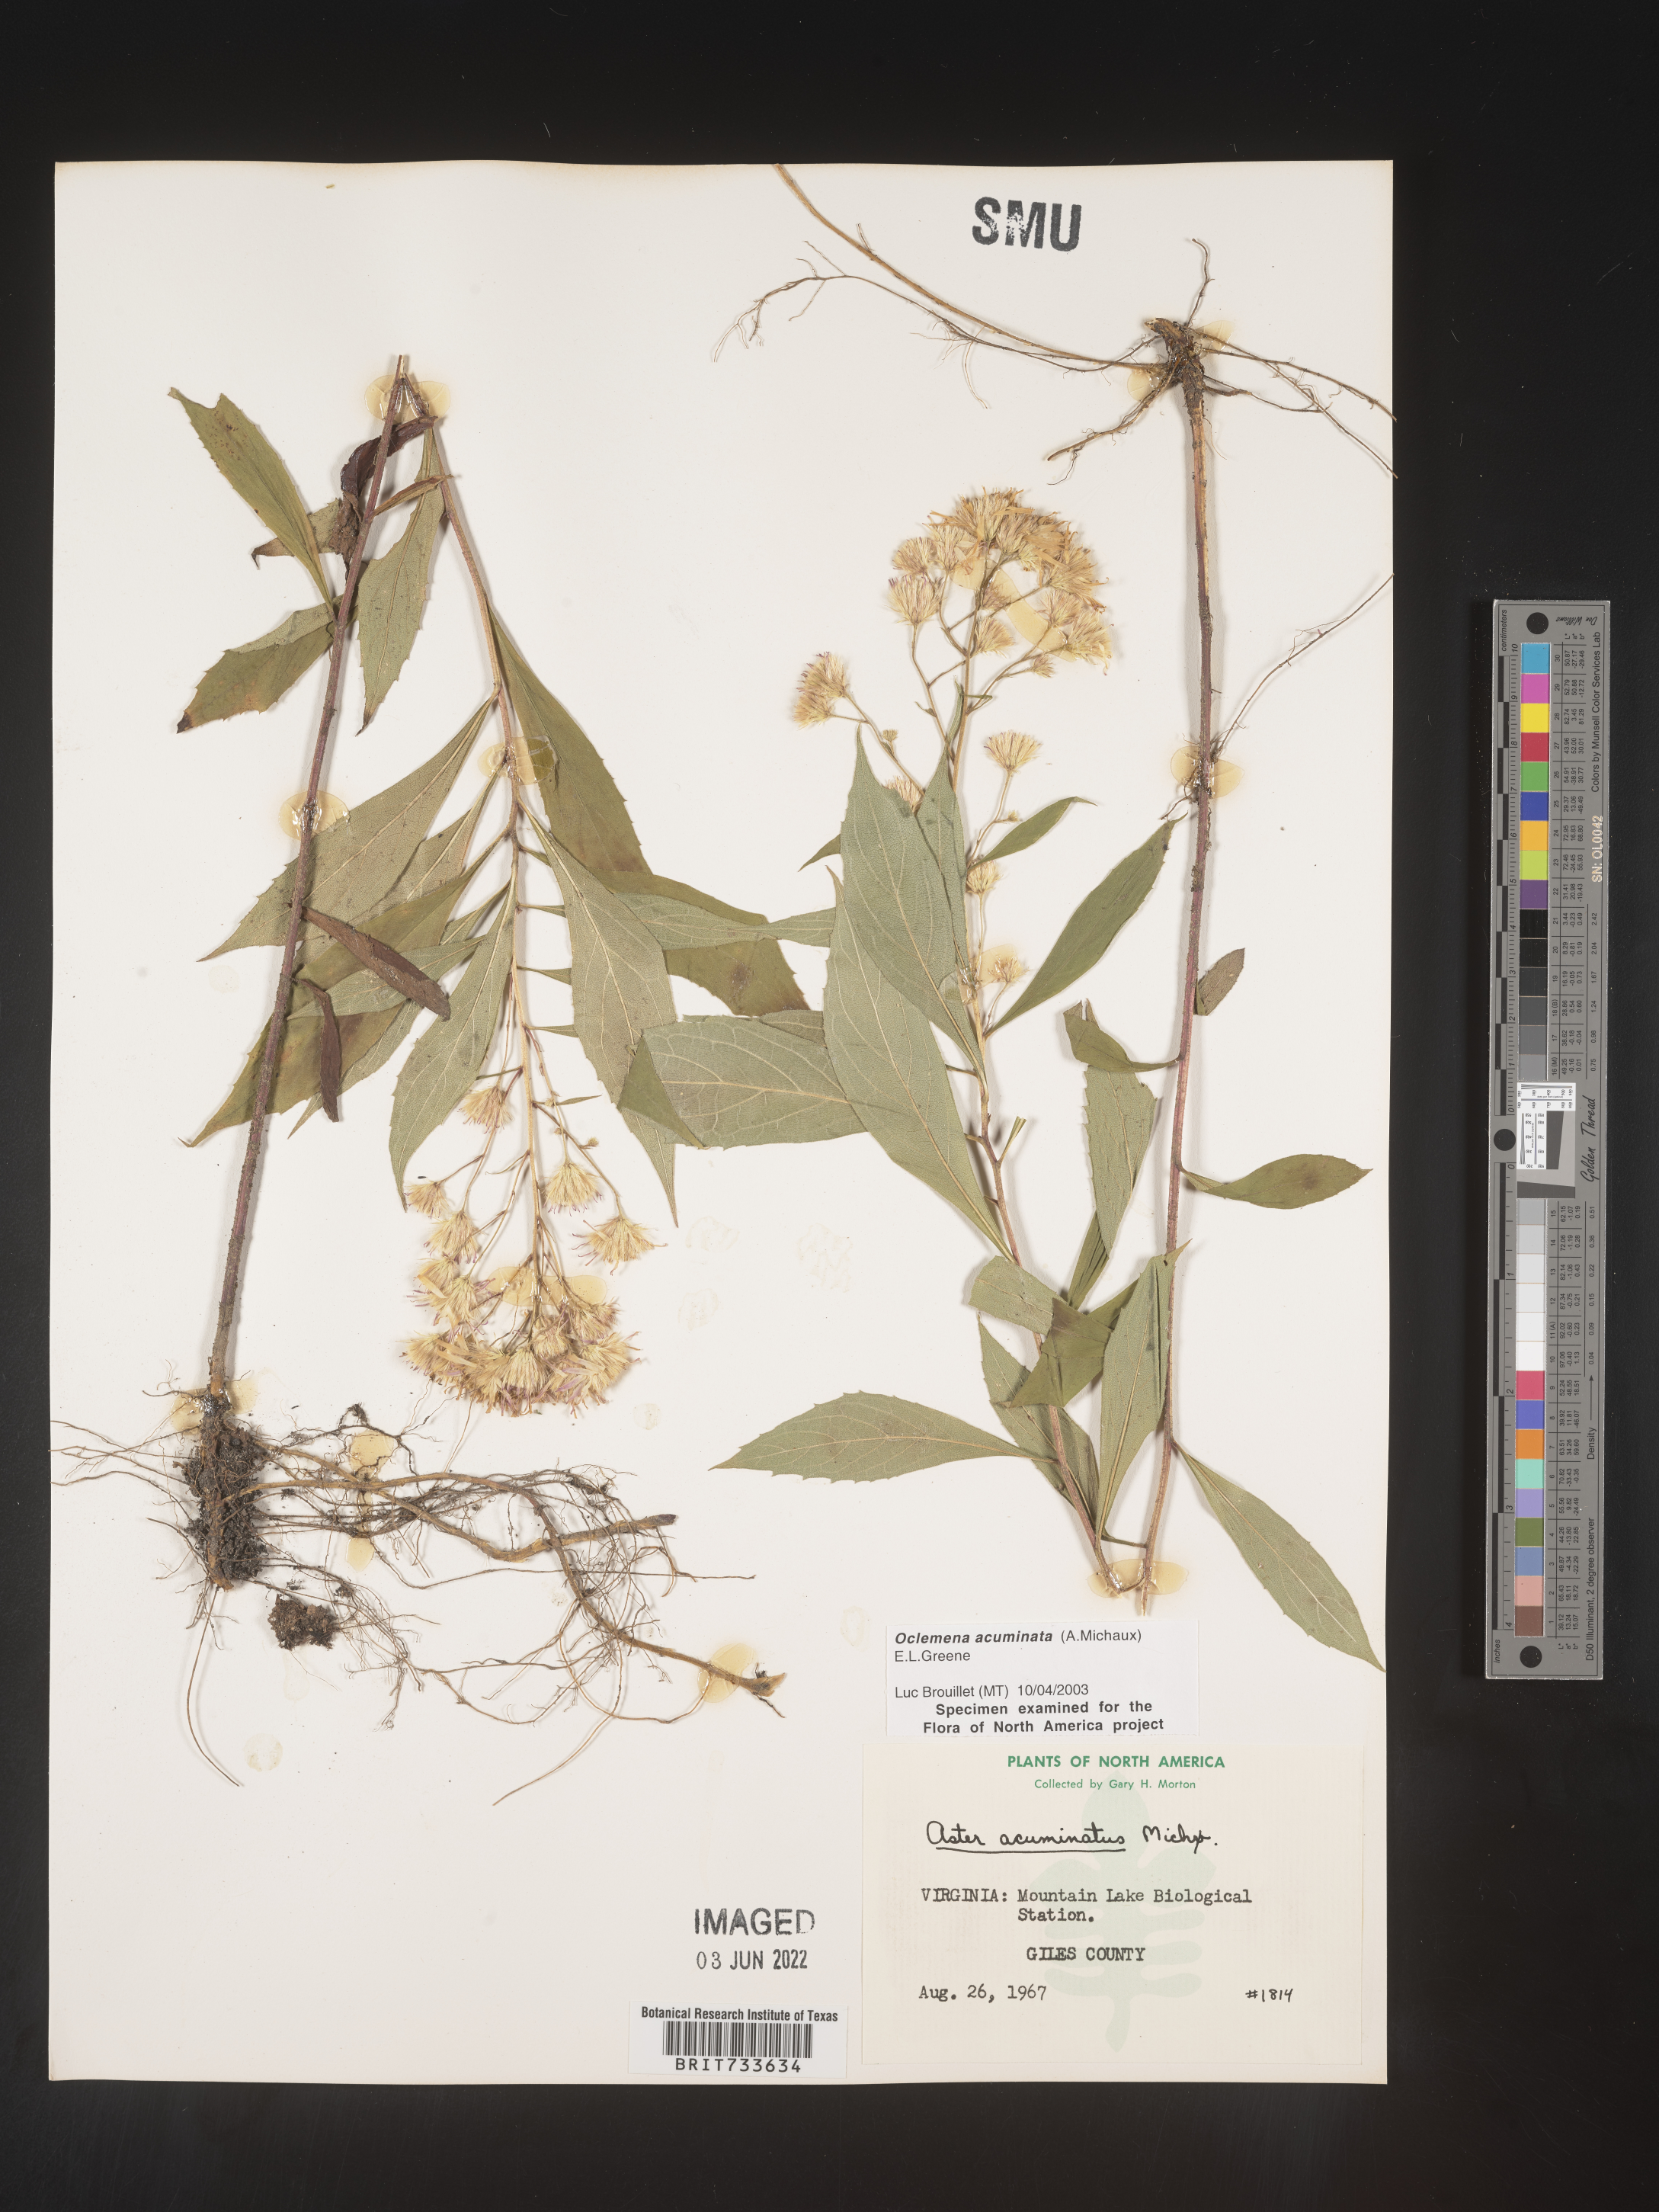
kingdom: Plantae
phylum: Tracheophyta
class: Magnoliopsida
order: Asterales
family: Asteraceae
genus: Oclemena
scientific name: Oclemena acuminata
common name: Mountain aster
